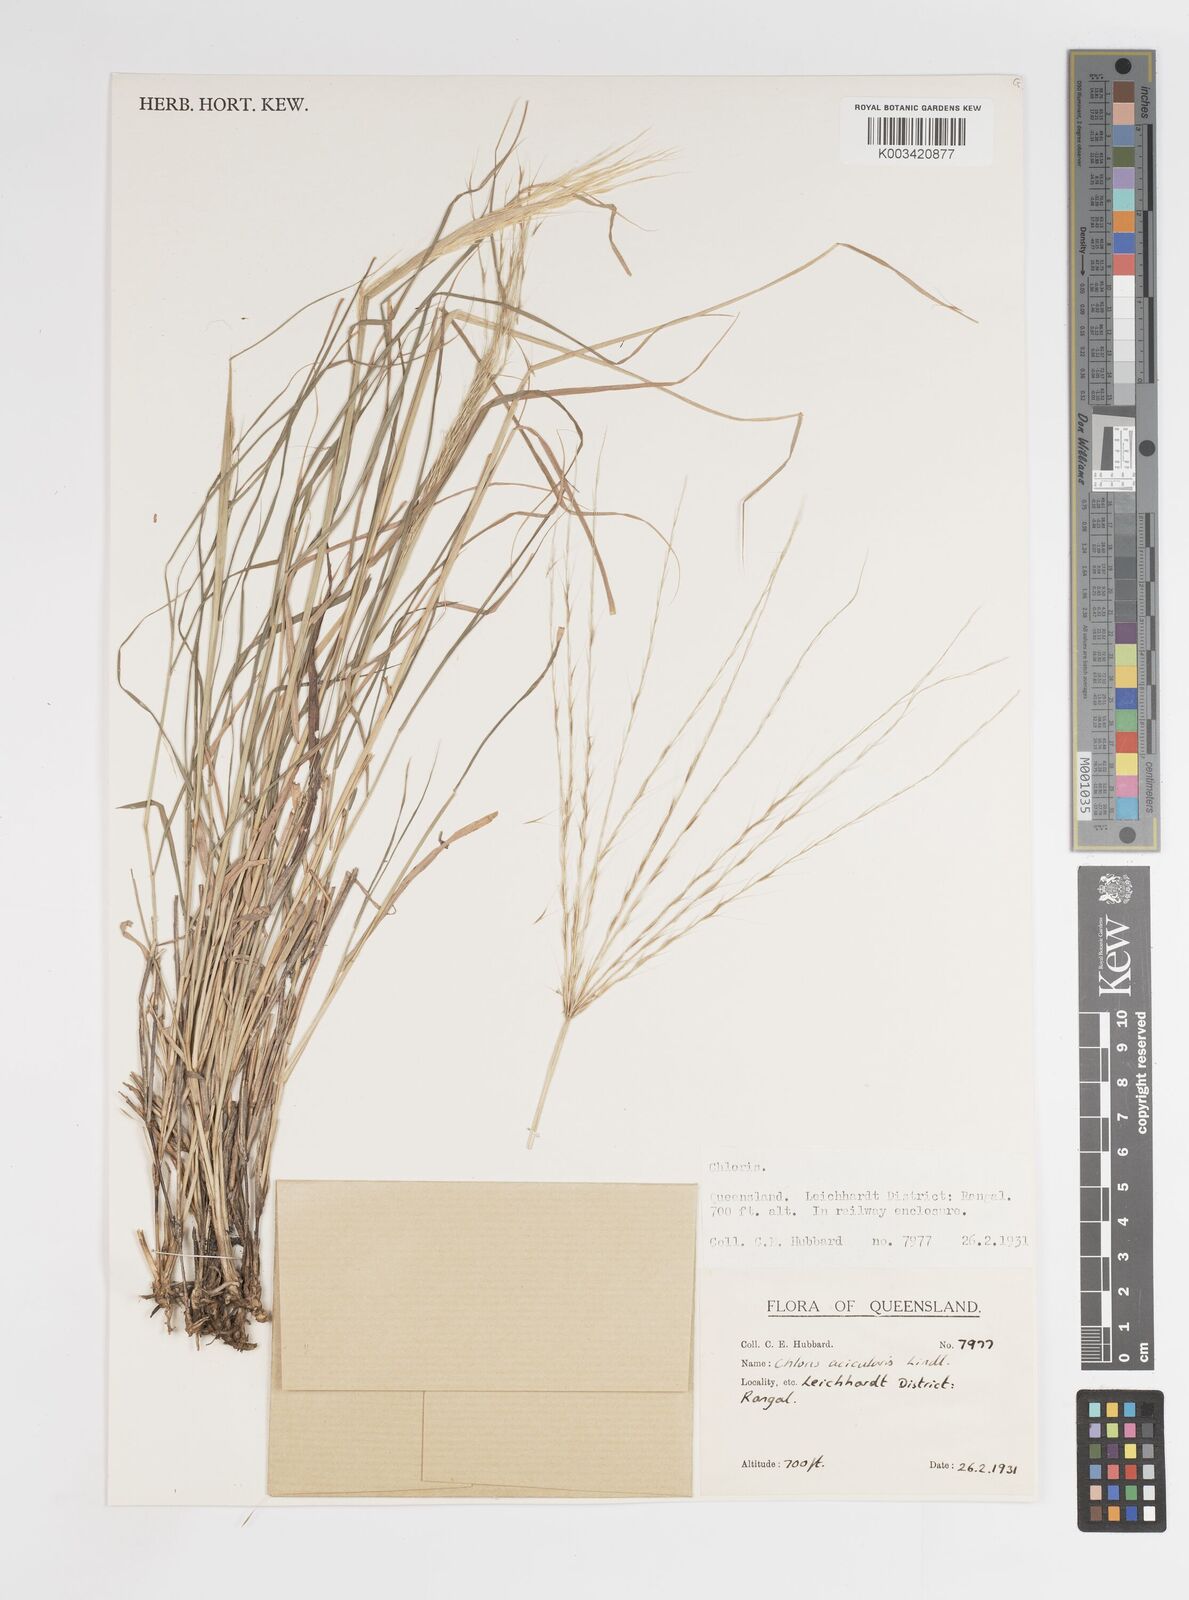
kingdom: Plantae
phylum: Tracheophyta
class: Liliopsida
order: Poales
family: Poaceae
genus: Enteropogon
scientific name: Enteropogon acicularis
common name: Curly windmill grass
